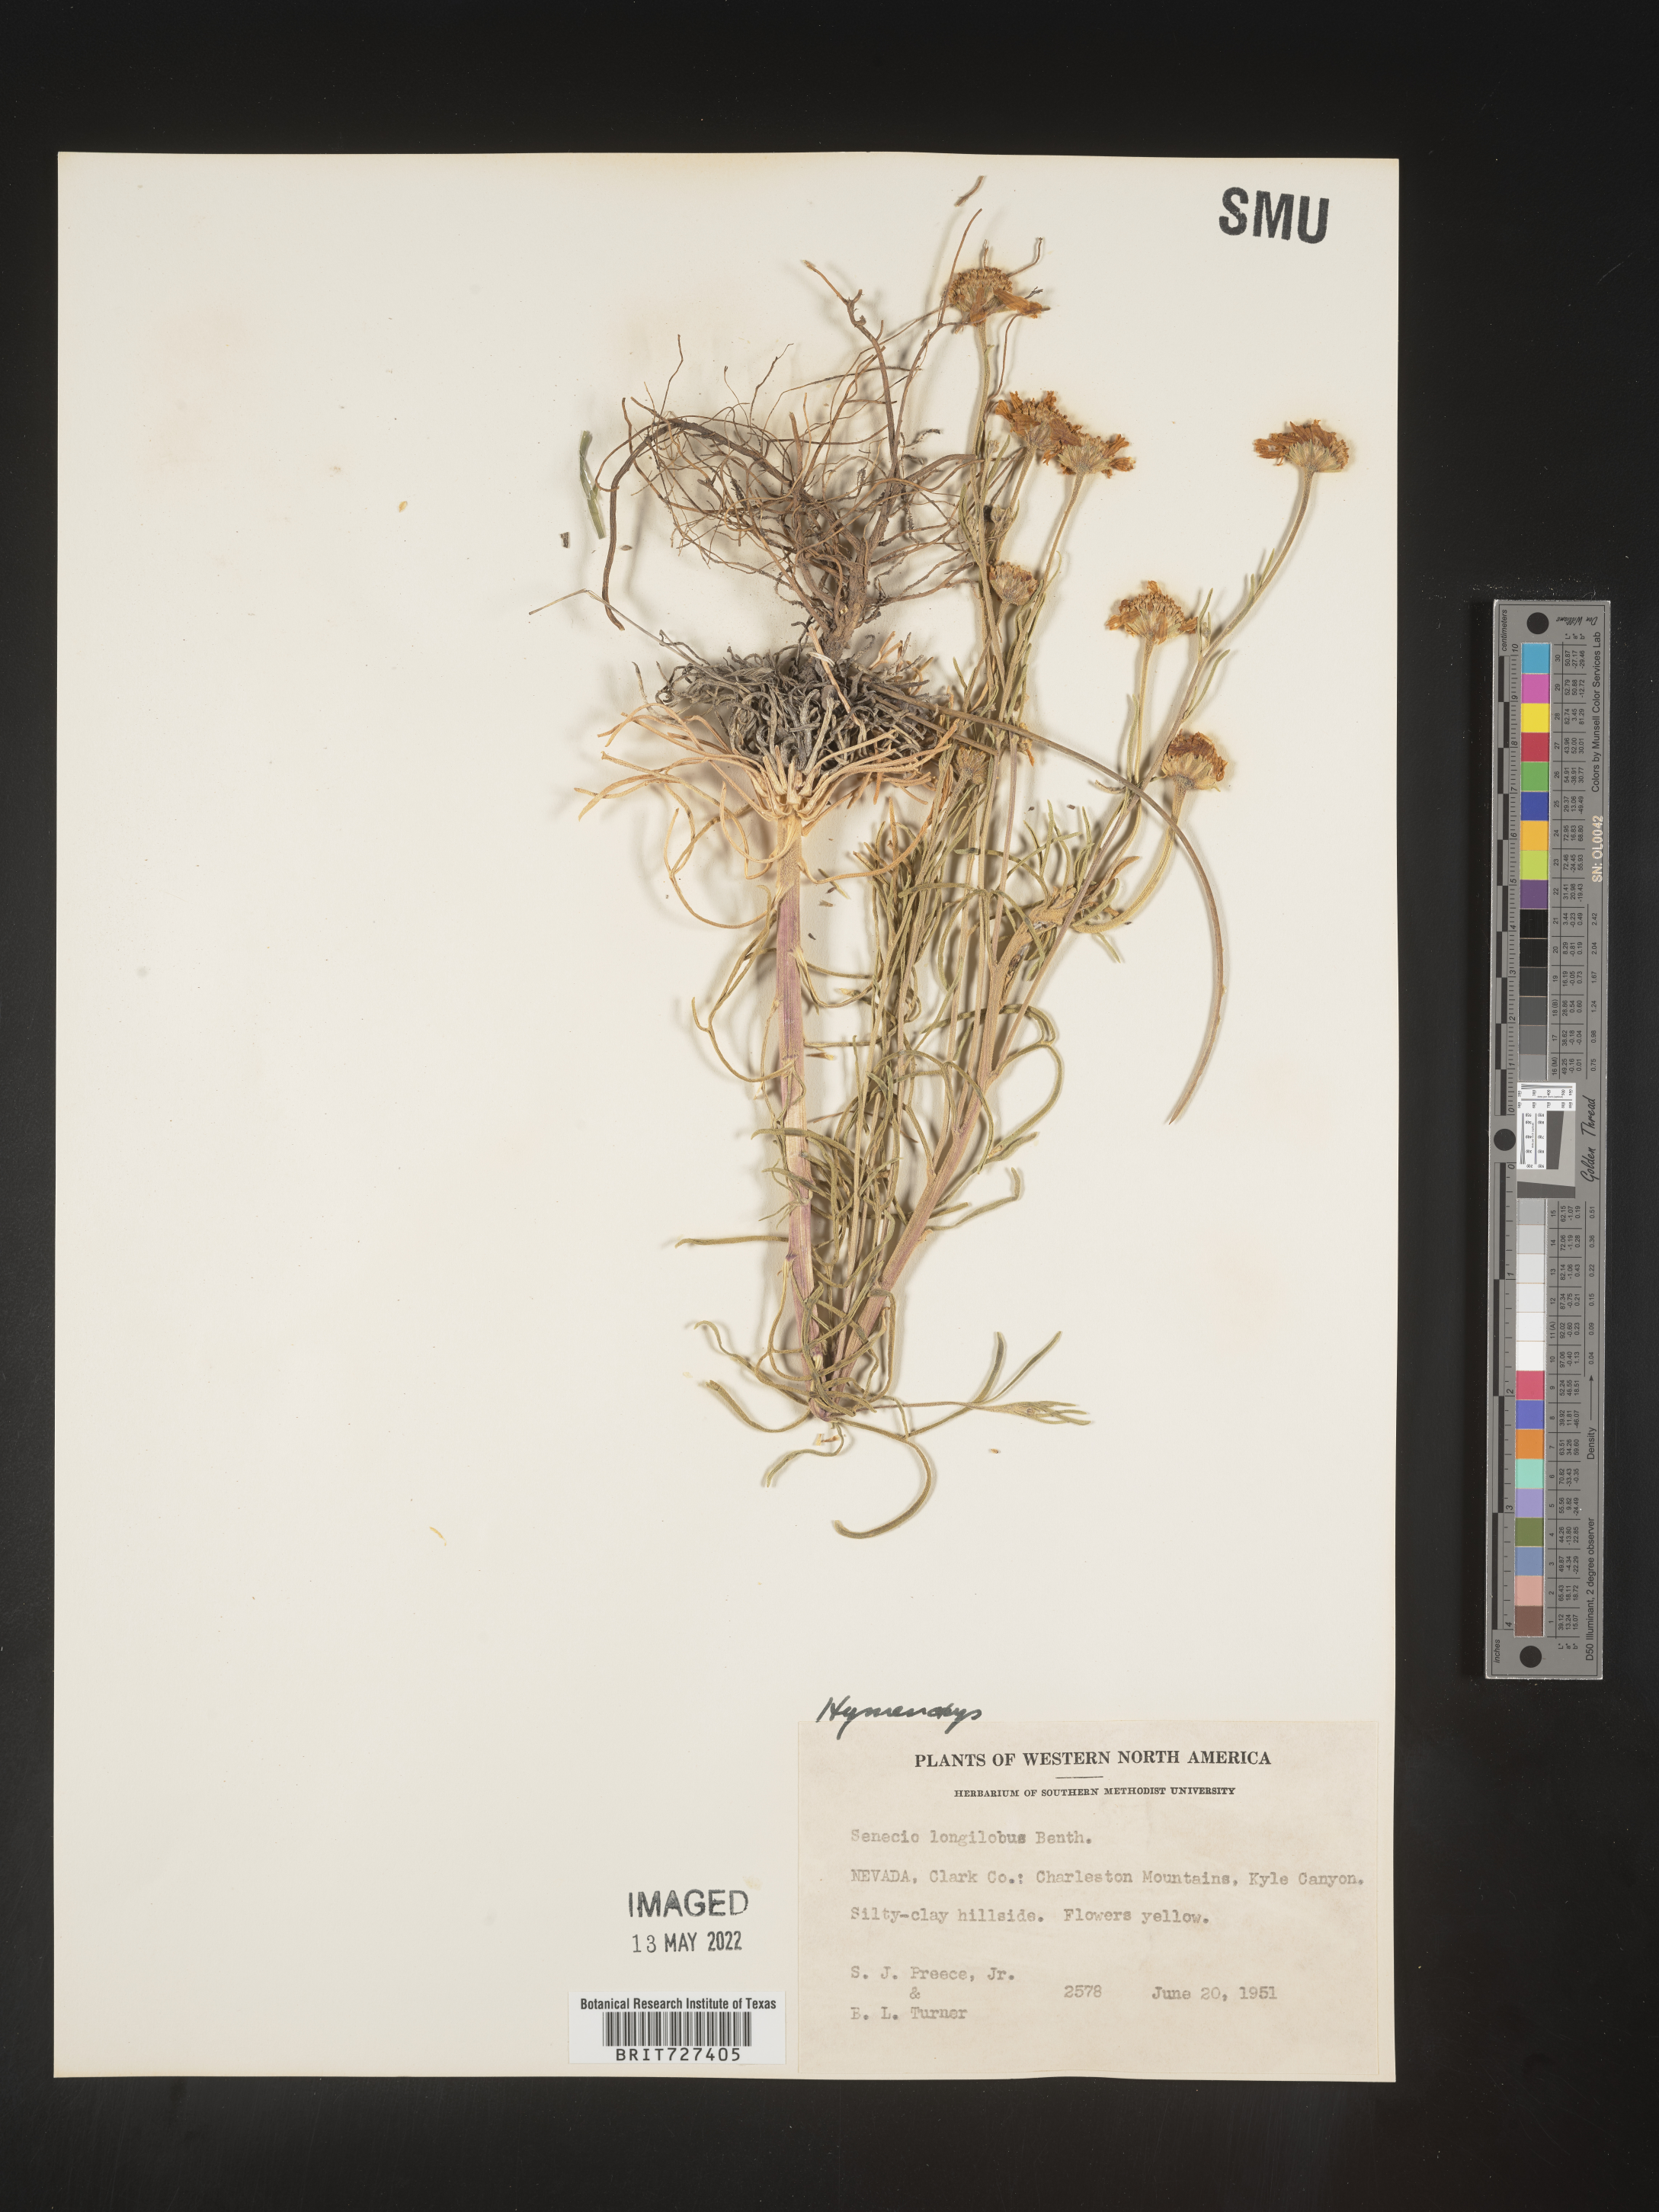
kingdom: Plantae
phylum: Tracheophyta
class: Magnoliopsida
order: Asterales
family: Asteraceae
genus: Hymenoxys
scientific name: Hymenoxys
